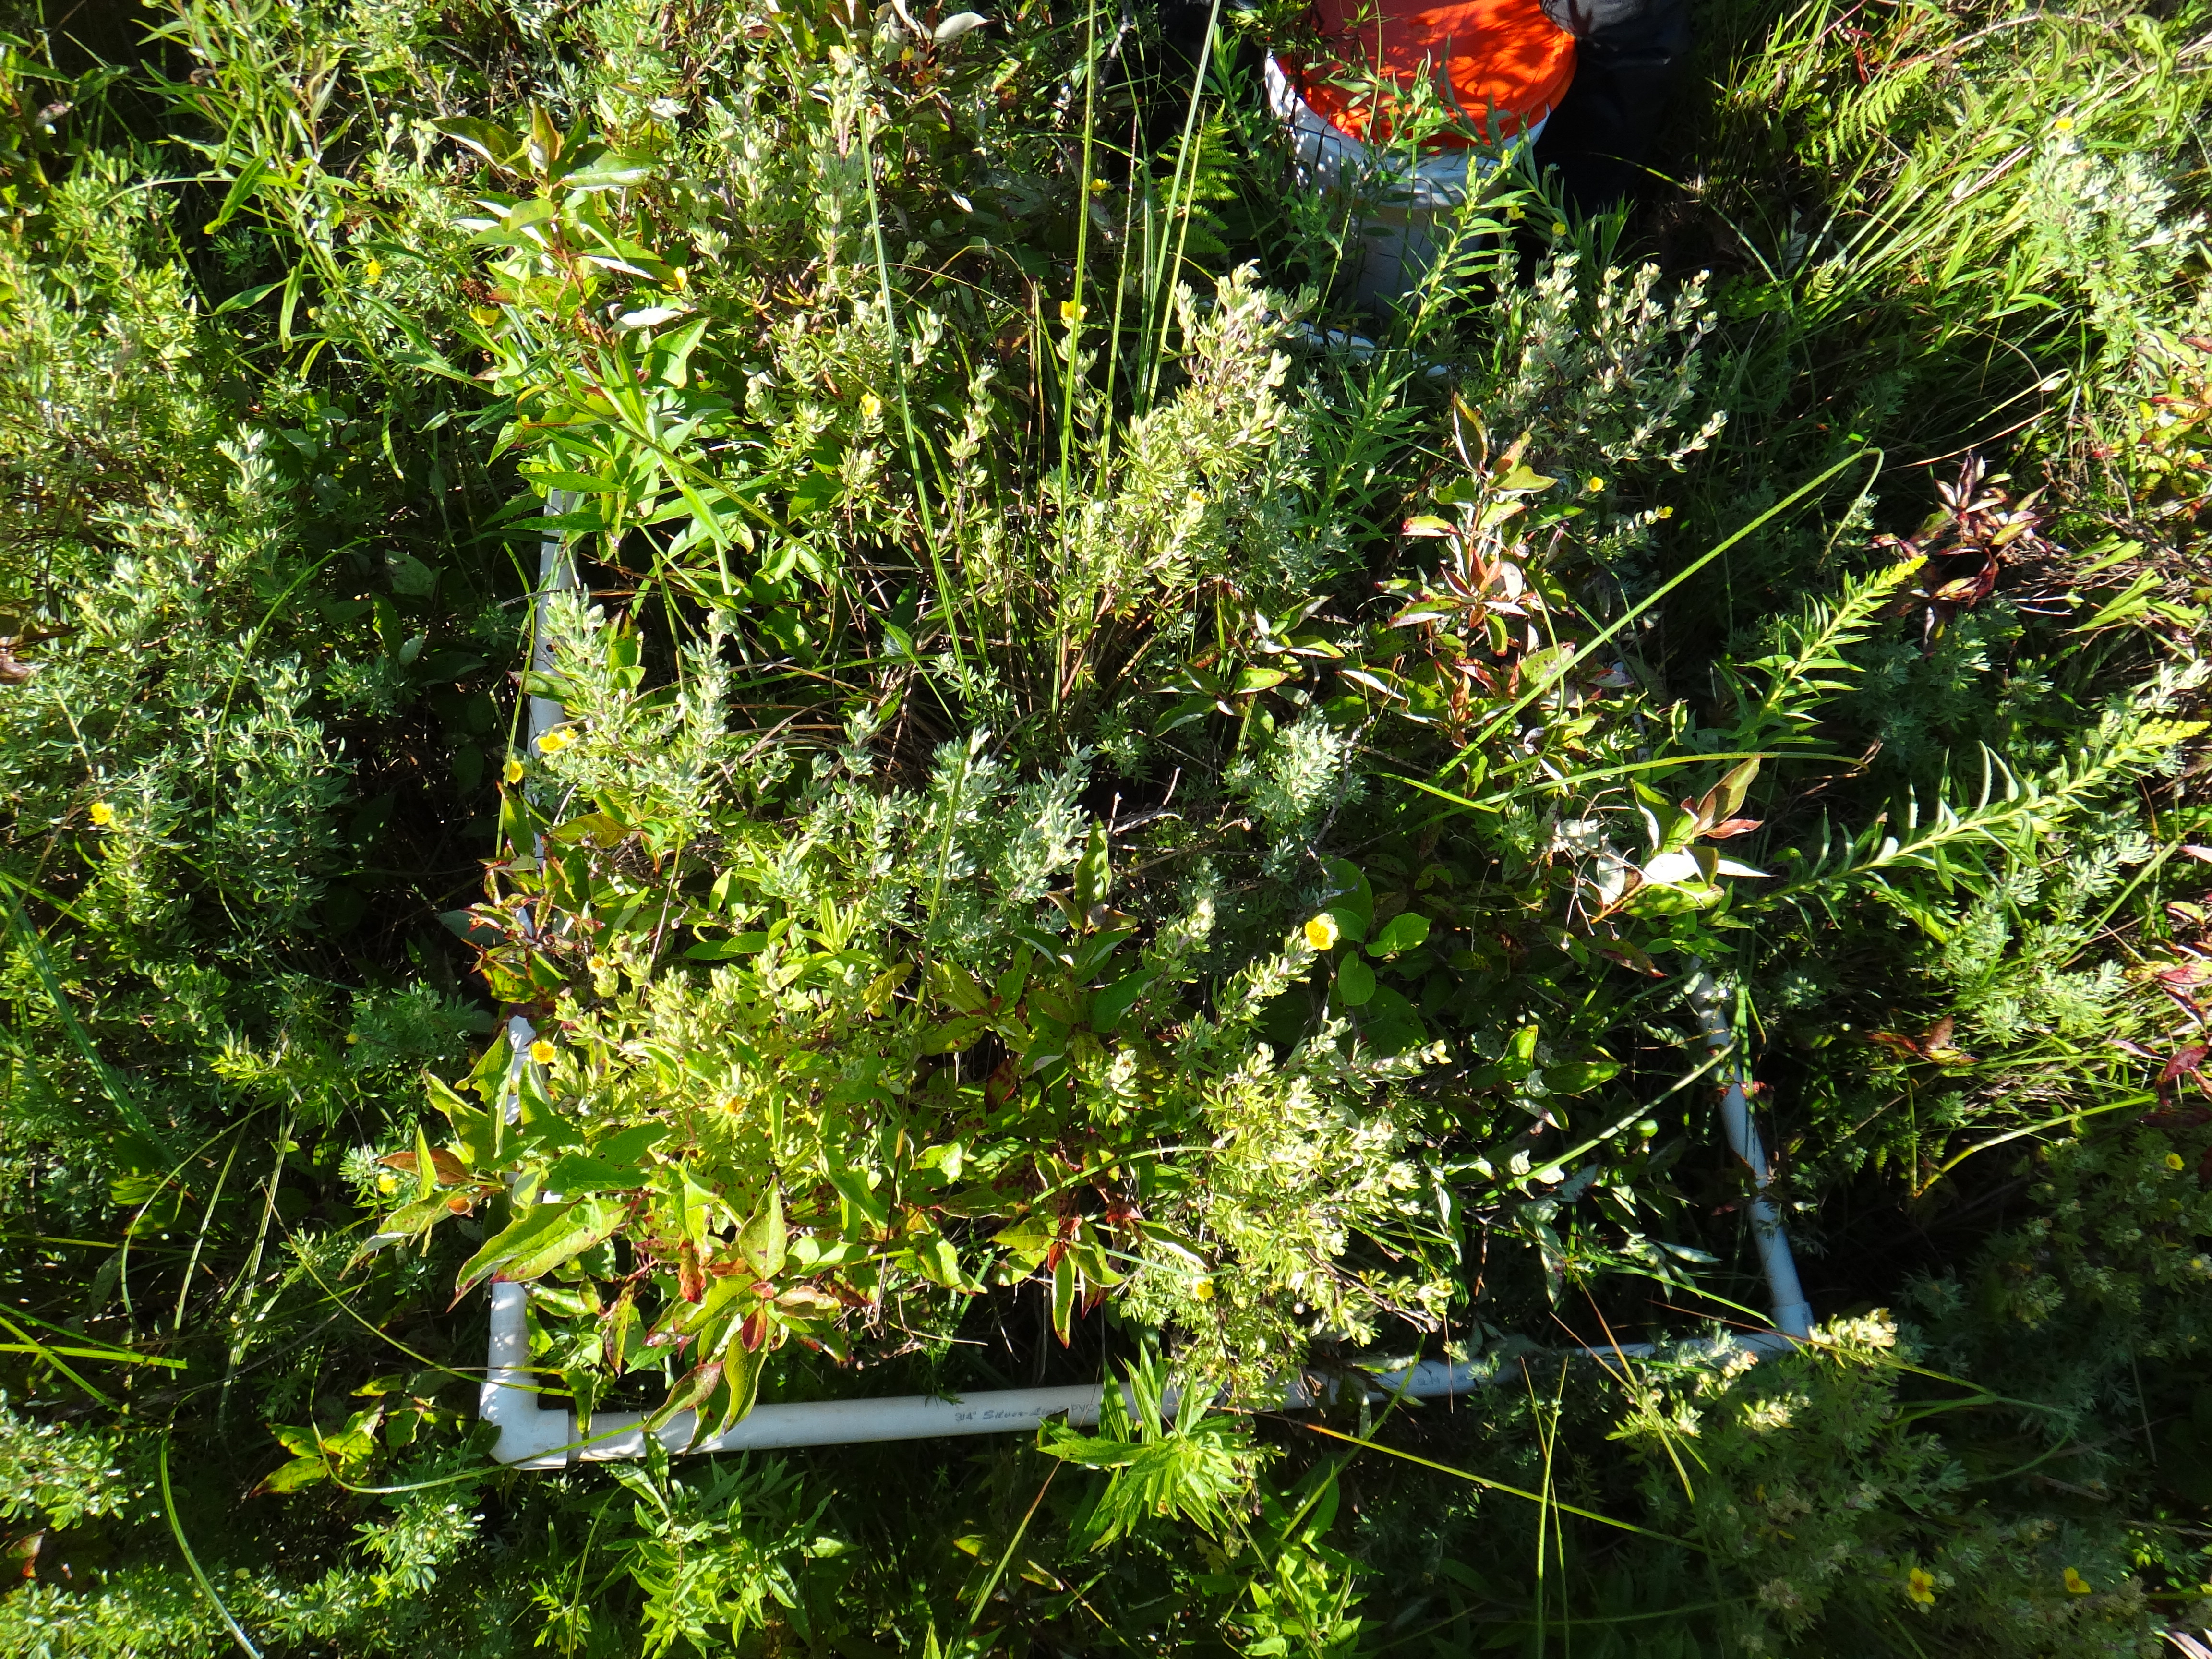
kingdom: Plantae
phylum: Tracheophyta
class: Magnoliopsida
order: Cornales
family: Cornaceae
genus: Cornus
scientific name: Cornus foemina
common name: Swamp dogwood
